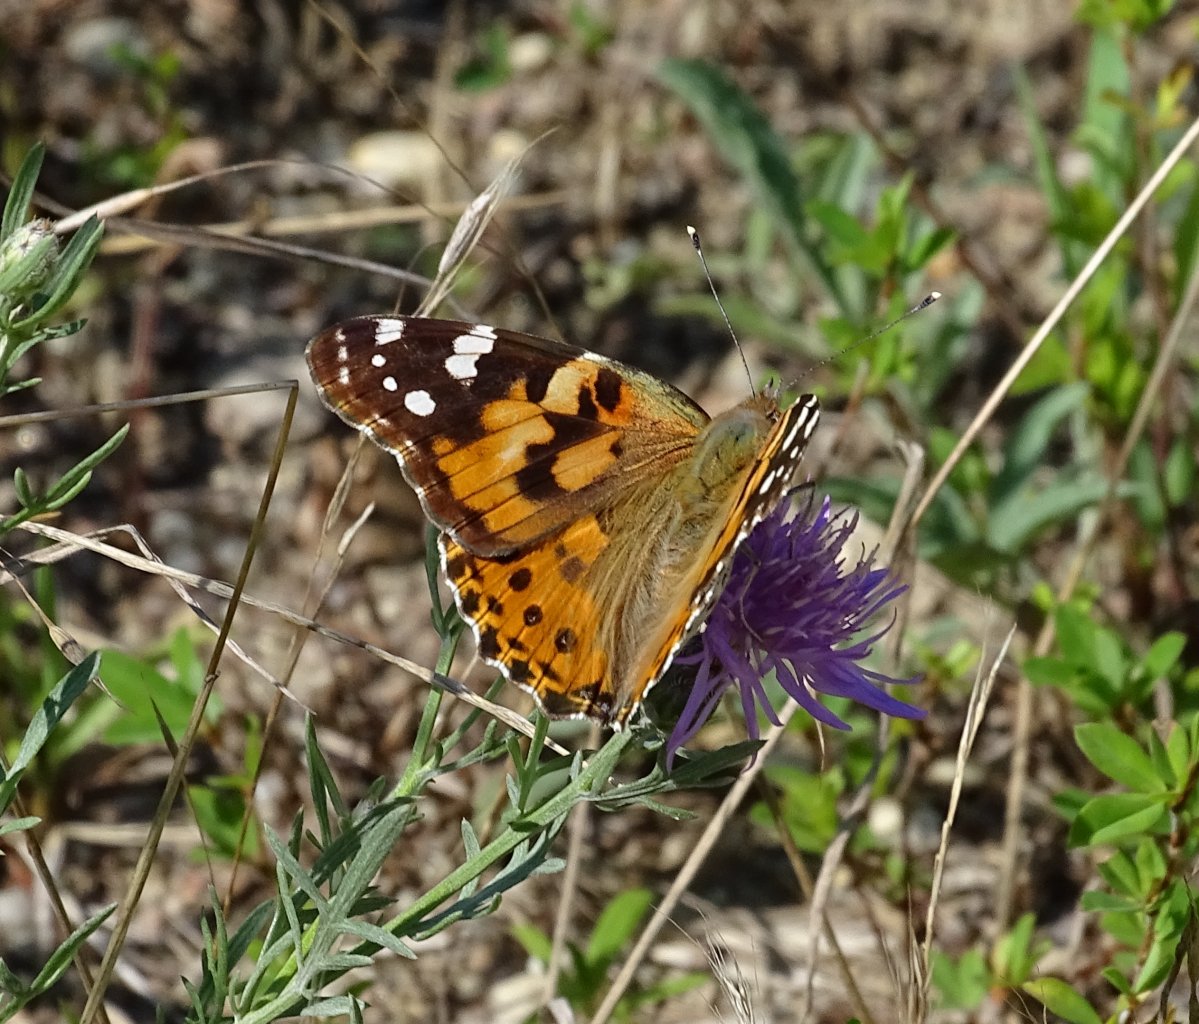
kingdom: Animalia
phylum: Arthropoda
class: Insecta
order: Lepidoptera
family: Nymphalidae
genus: Vanessa
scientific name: Vanessa cardui
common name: Painted Lady
